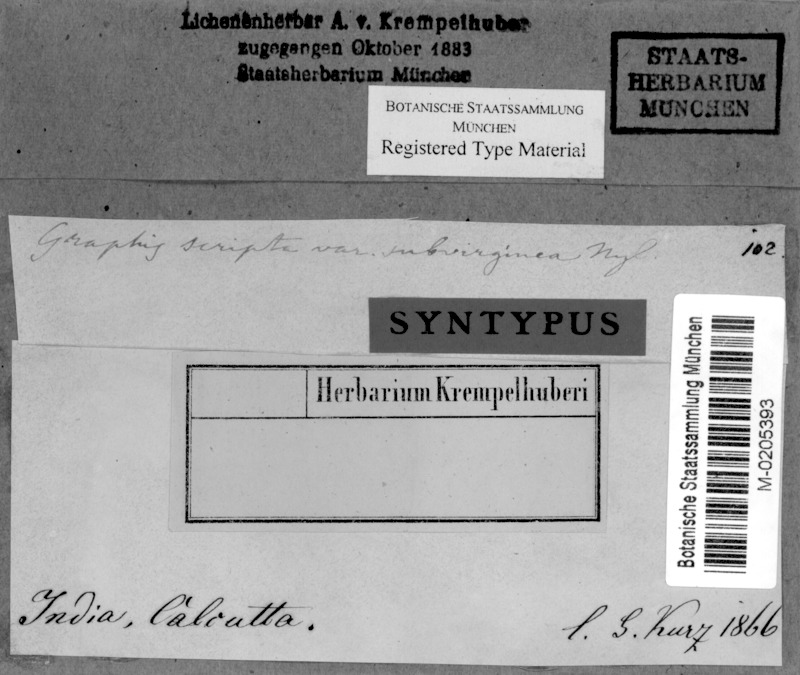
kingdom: Fungi
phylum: Ascomycota
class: Lecanoromycetes
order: Ostropales
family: Graphidaceae
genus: Graphis
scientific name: Graphis scripta
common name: Script lichen
